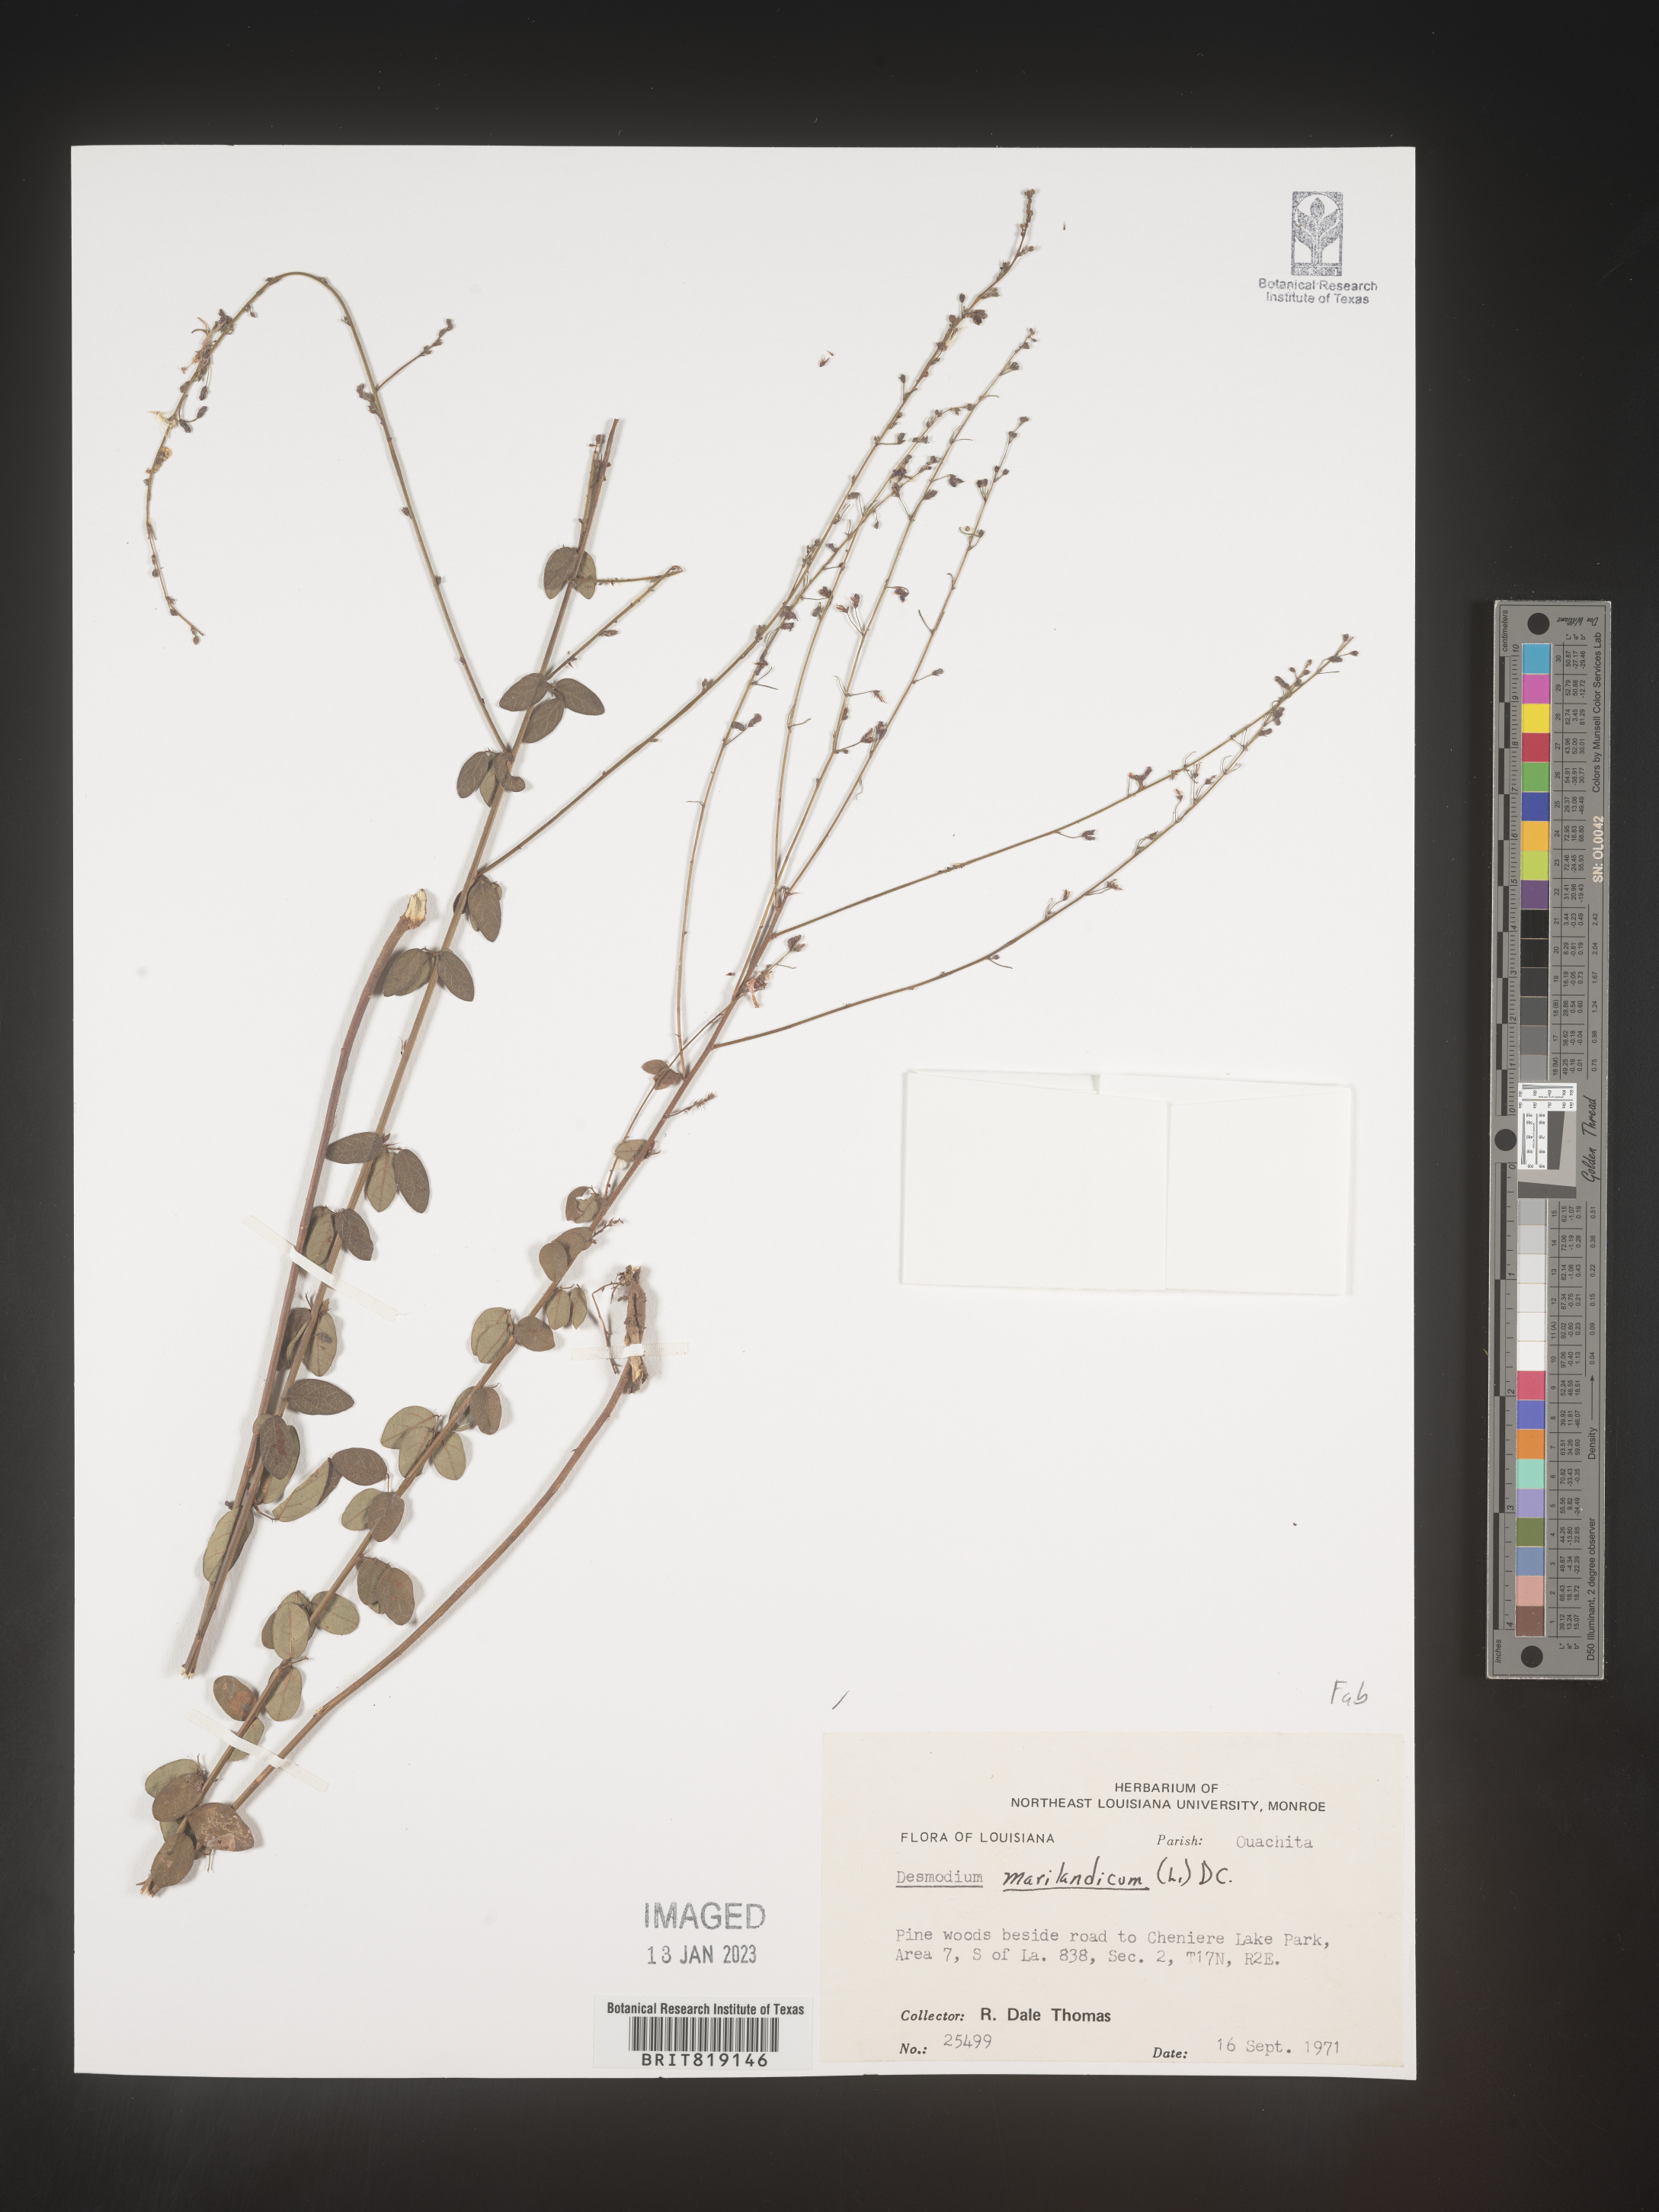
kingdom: Plantae
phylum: Tracheophyta
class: Magnoliopsida
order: Fabales
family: Fabaceae
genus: Desmodium
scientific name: Desmodium marilandicum
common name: Maryland tick-trefoil
